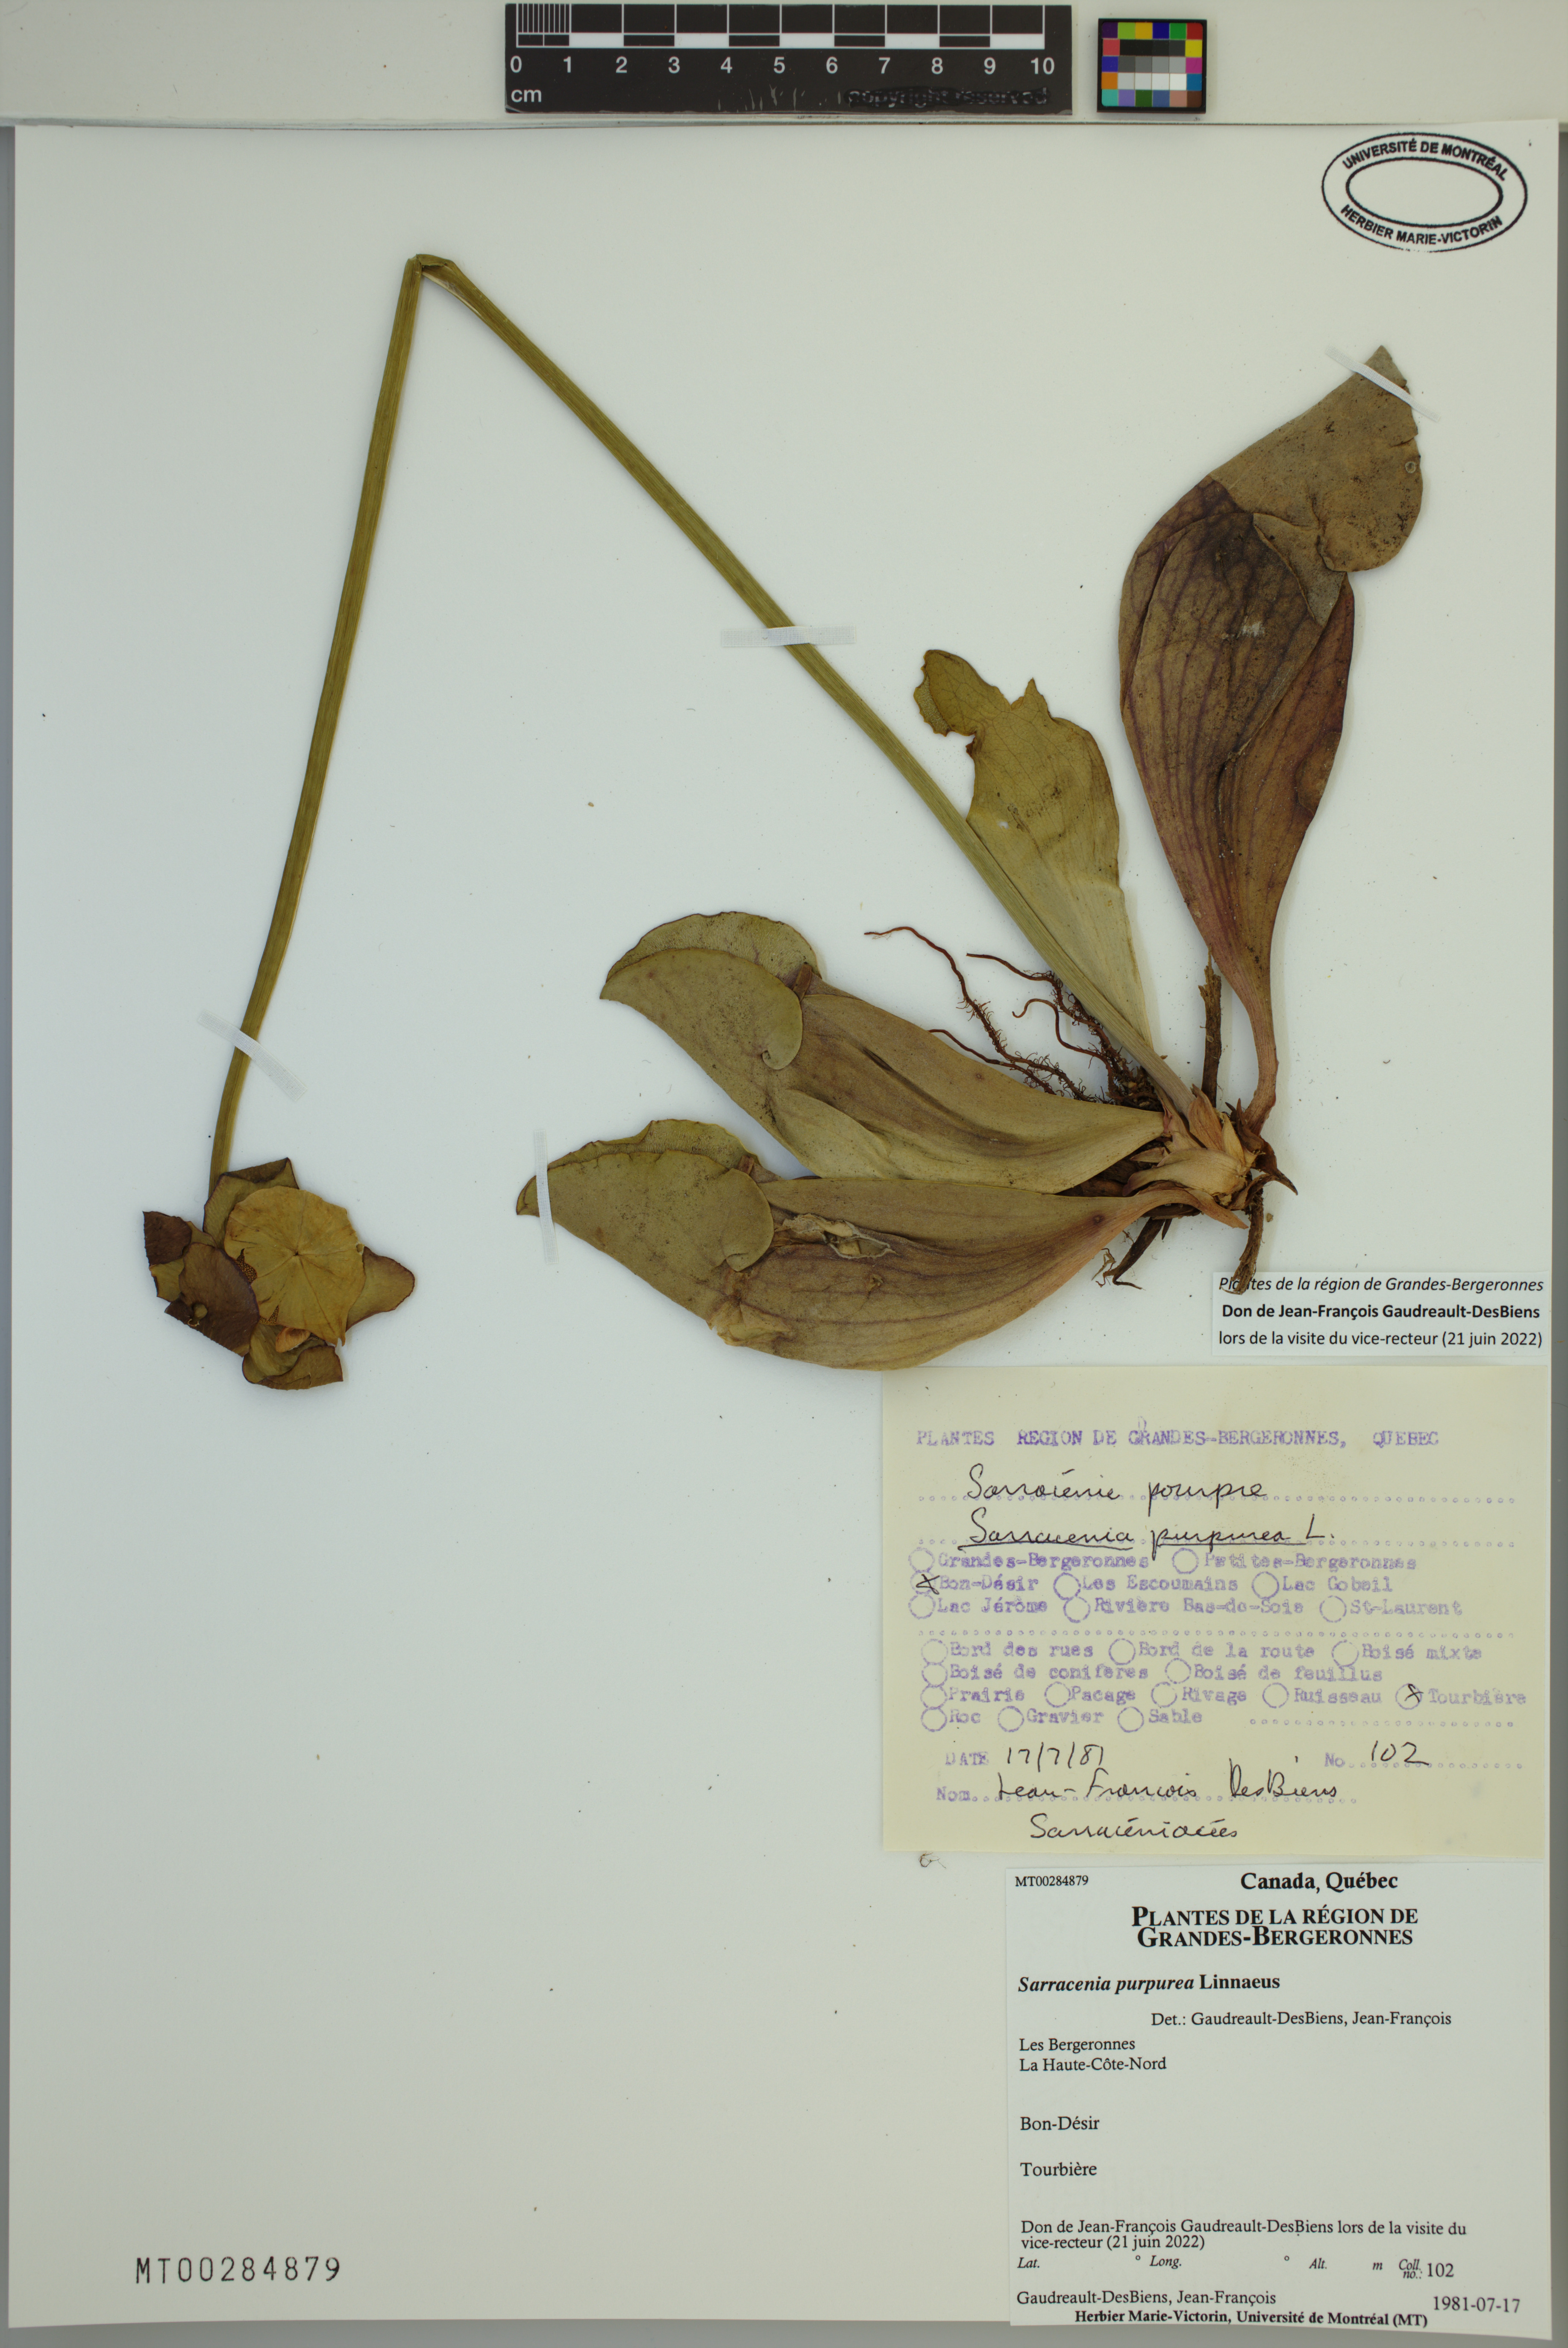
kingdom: Plantae
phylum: Tracheophyta
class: Magnoliopsida
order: Ericales
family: Sarraceniaceae
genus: Sarracenia
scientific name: Sarracenia purpurea
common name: Pitcherplant
